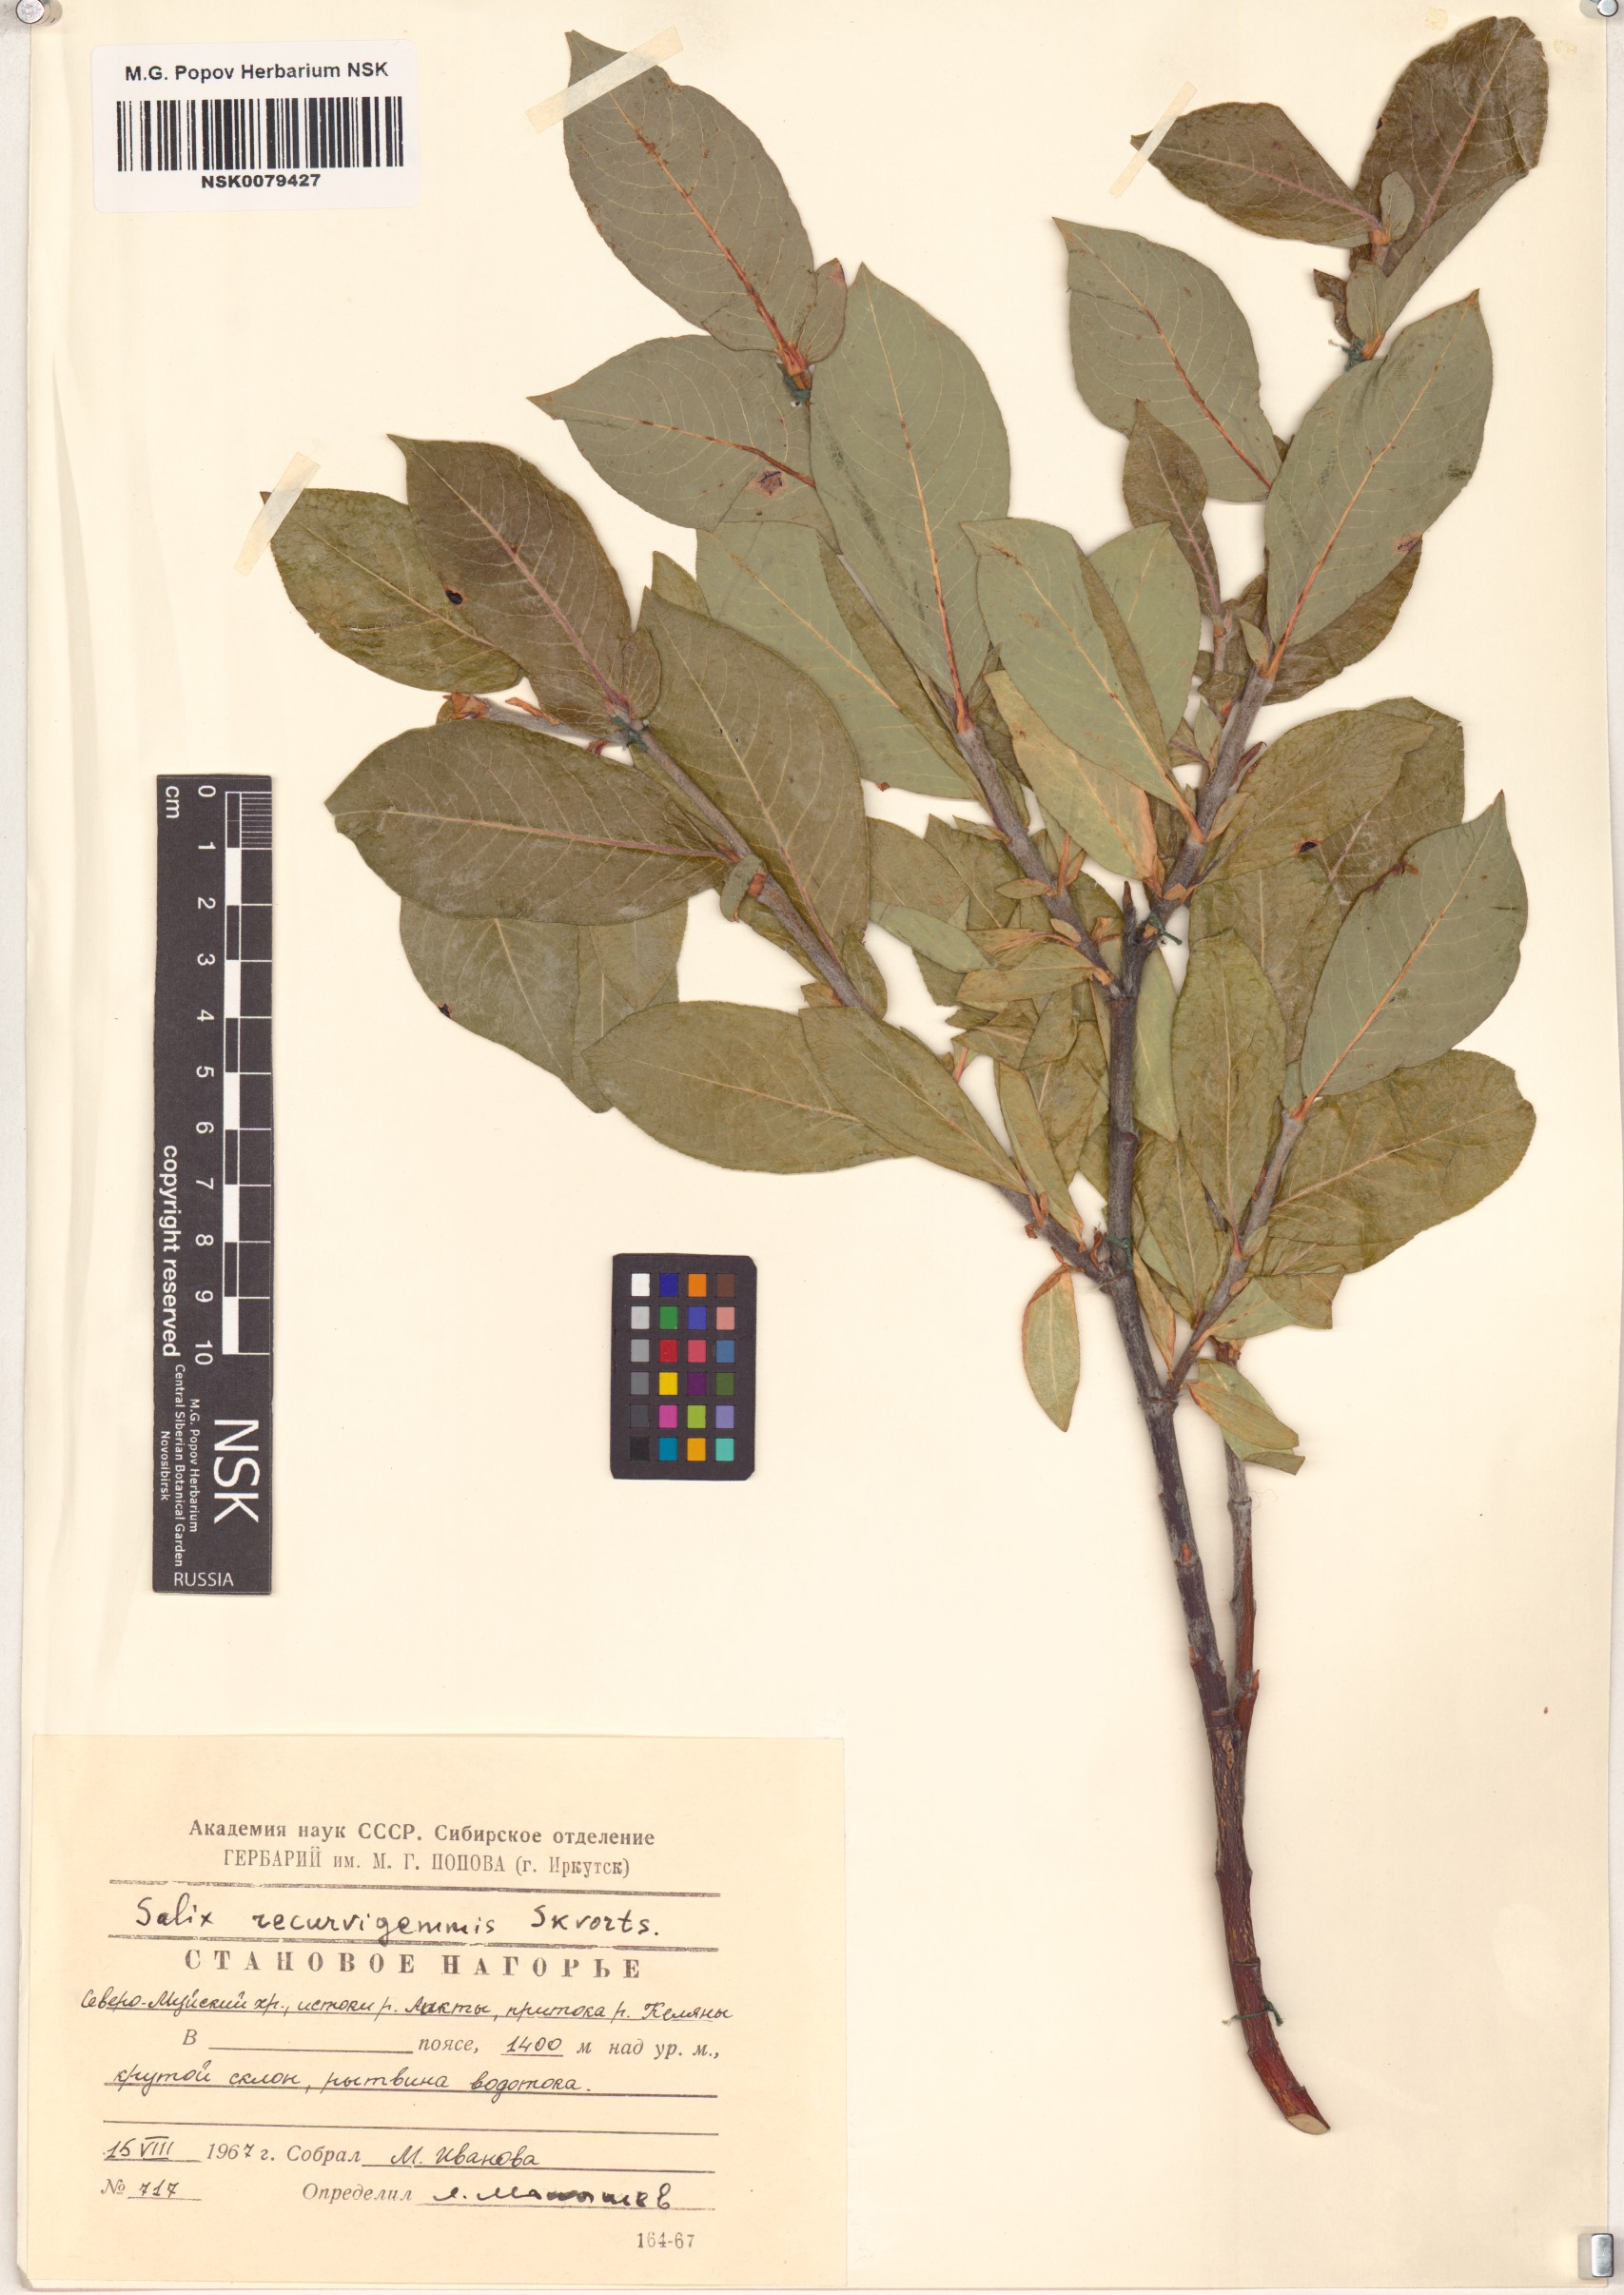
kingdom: Plantae
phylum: Tracheophyta
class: Magnoliopsida
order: Malpighiales
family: Salicaceae
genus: Salix
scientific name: Salix recurvigemmata
